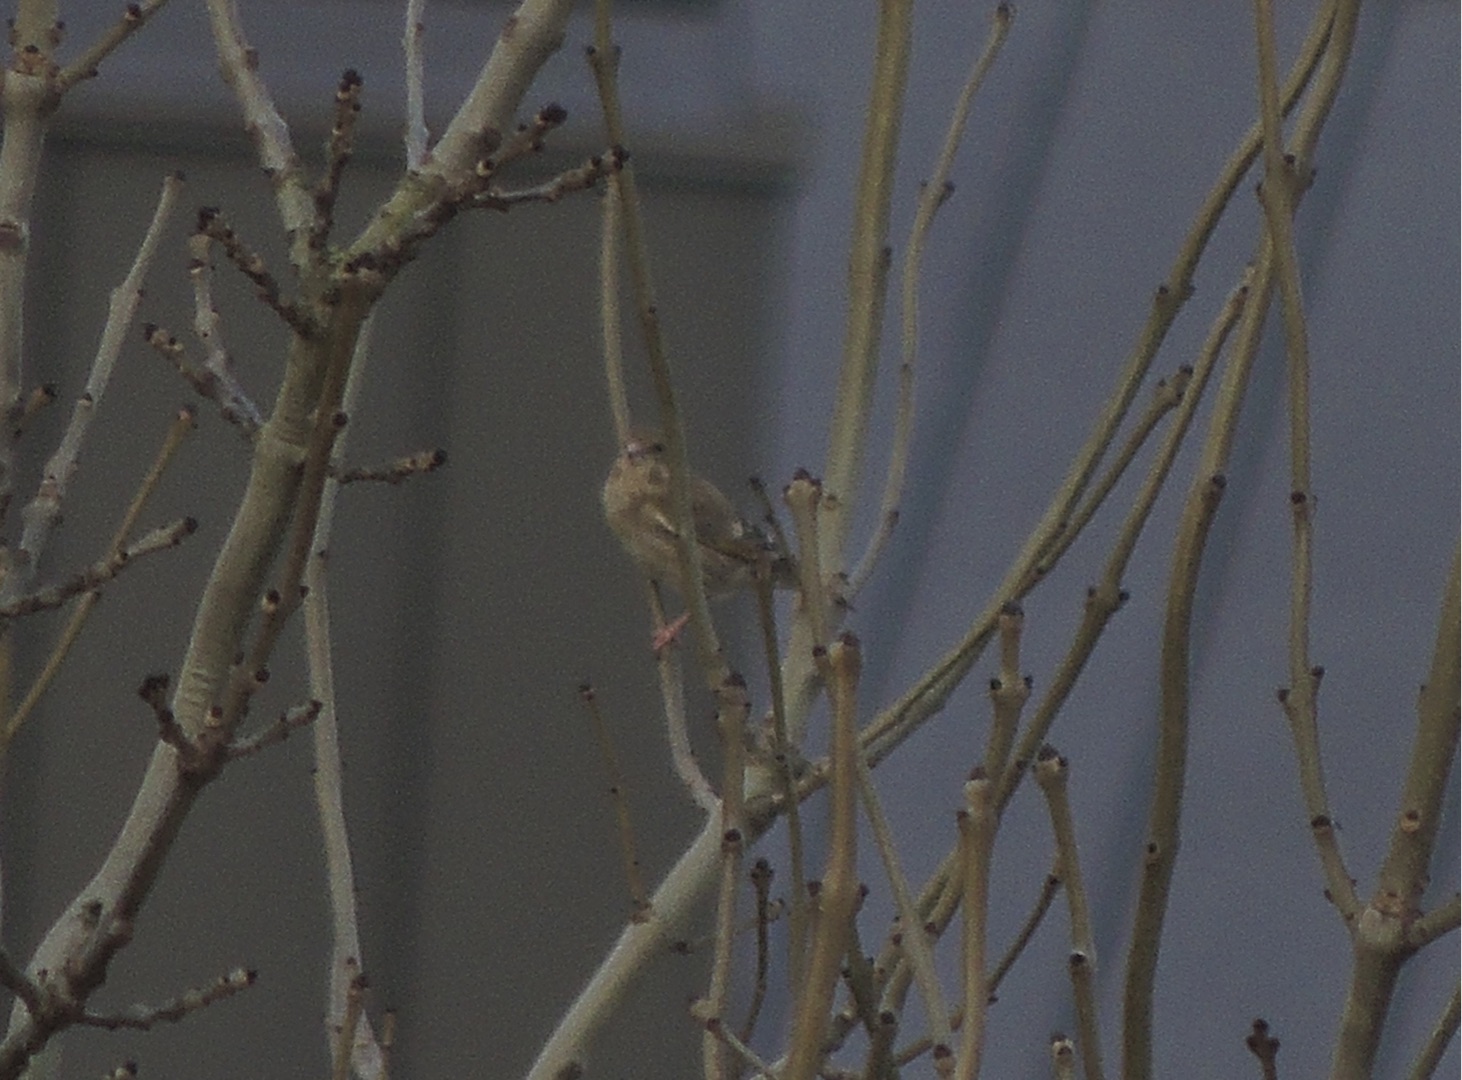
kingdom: Plantae
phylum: Tracheophyta
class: Liliopsida
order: Poales
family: Poaceae
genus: Chloris
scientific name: Chloris chloris
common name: Grønirisk
